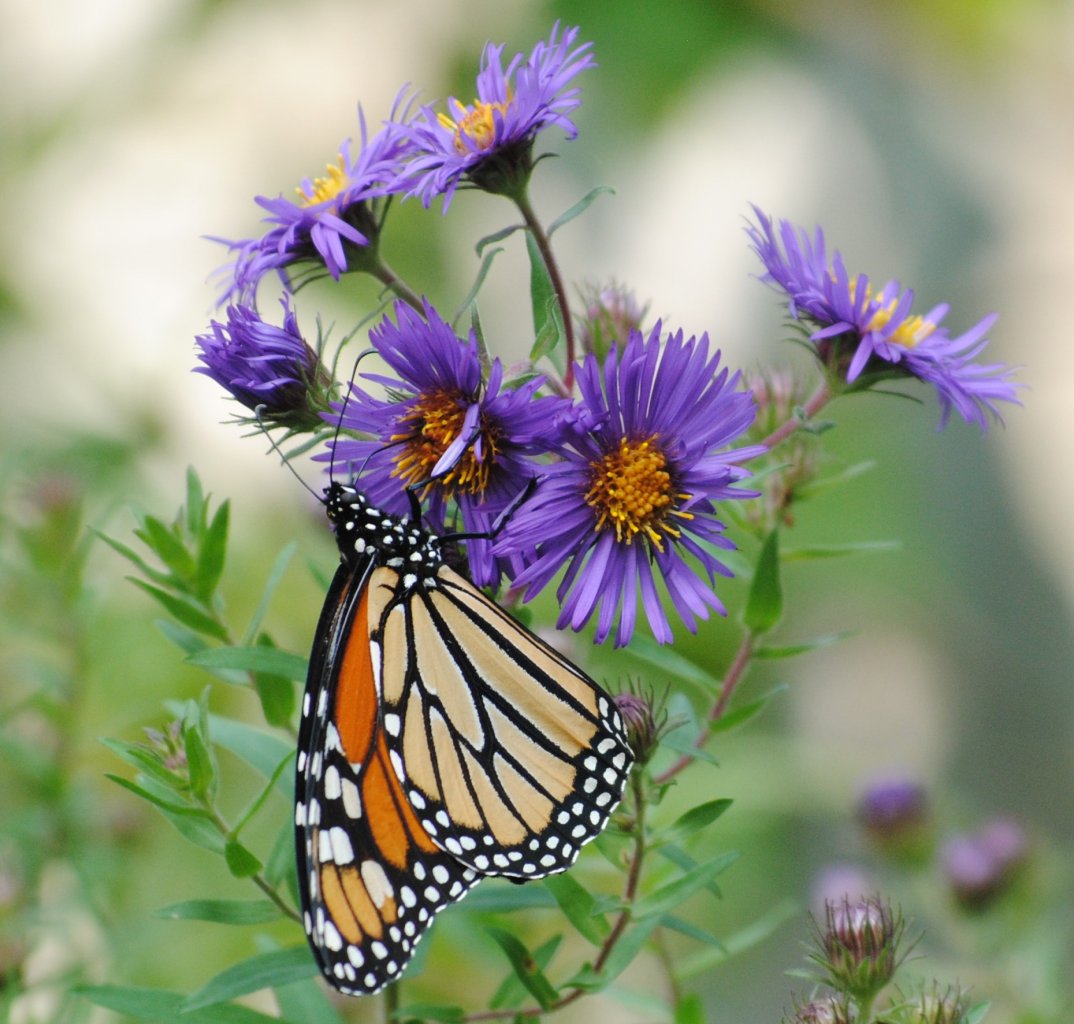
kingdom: Animalia
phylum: Arthropoda
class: Insecta
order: Lepidoptera
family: Nymphalidae
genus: Danaus
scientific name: Danaus plexippus
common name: Monarch
